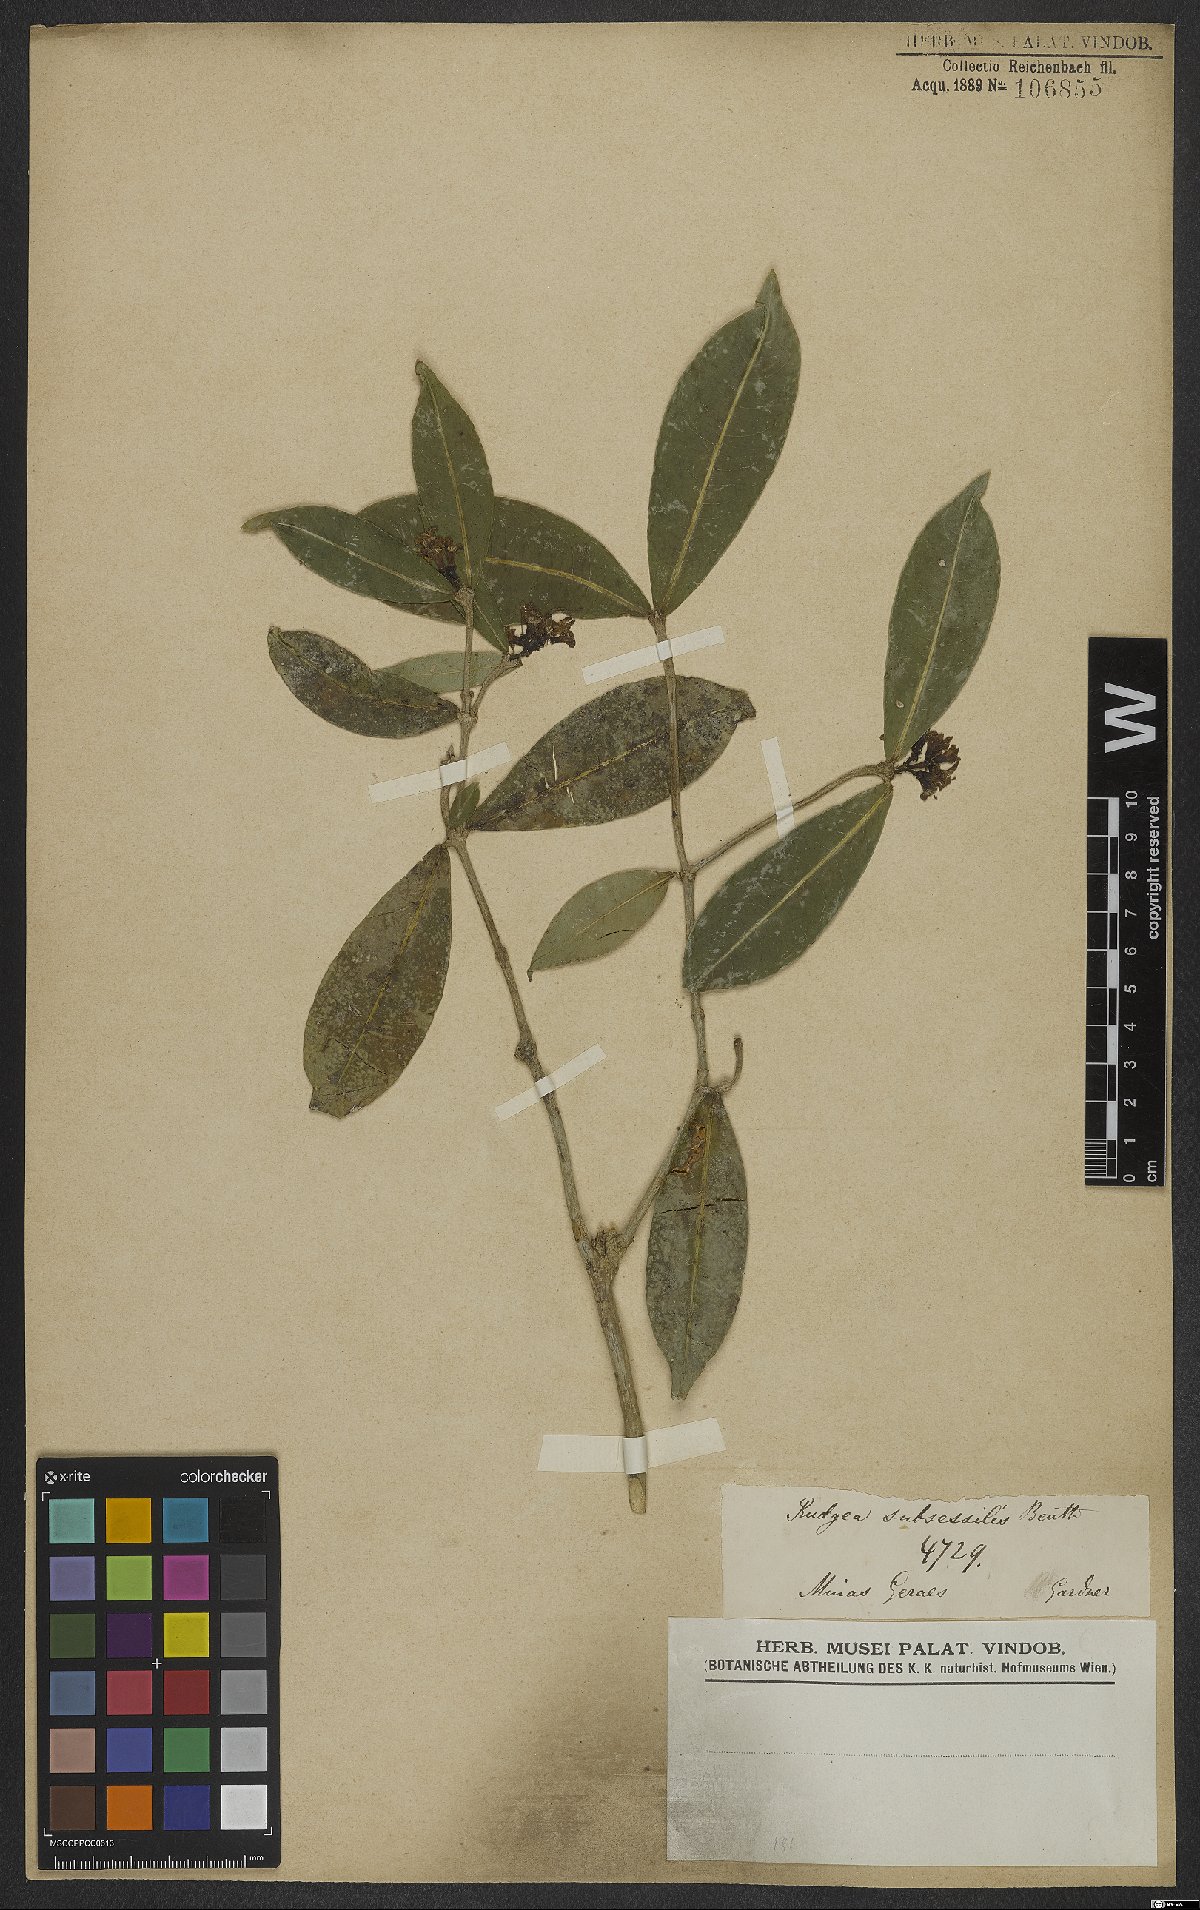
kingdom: Plantae
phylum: Tracheophyta
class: Magnoliopsida
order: Gentianales
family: Rubiaceae
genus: Rudgea
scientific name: Rudgea sessilis
